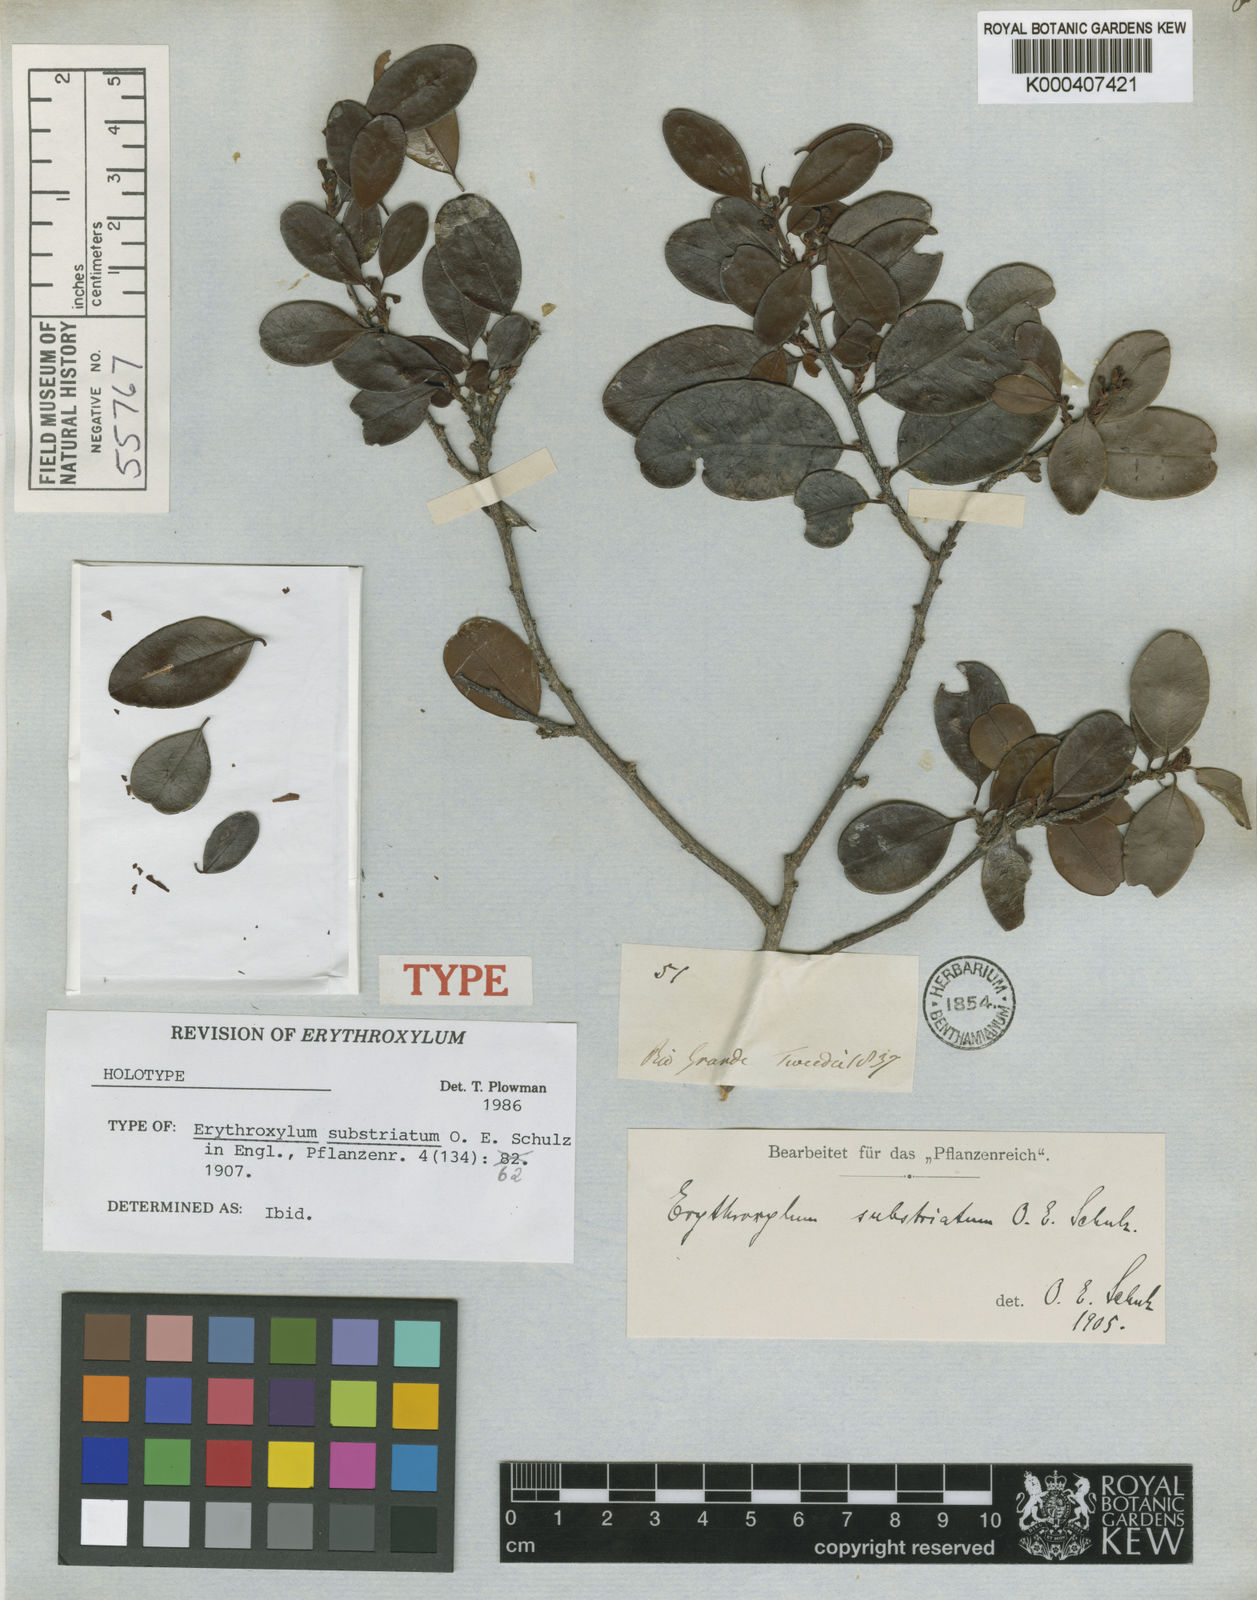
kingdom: Plantae
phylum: Tracheophyta
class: Magnoliopsida
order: Malpighiales
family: Erythroxylaceae
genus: Erythroxylum
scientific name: Erythroxylum substriatum
